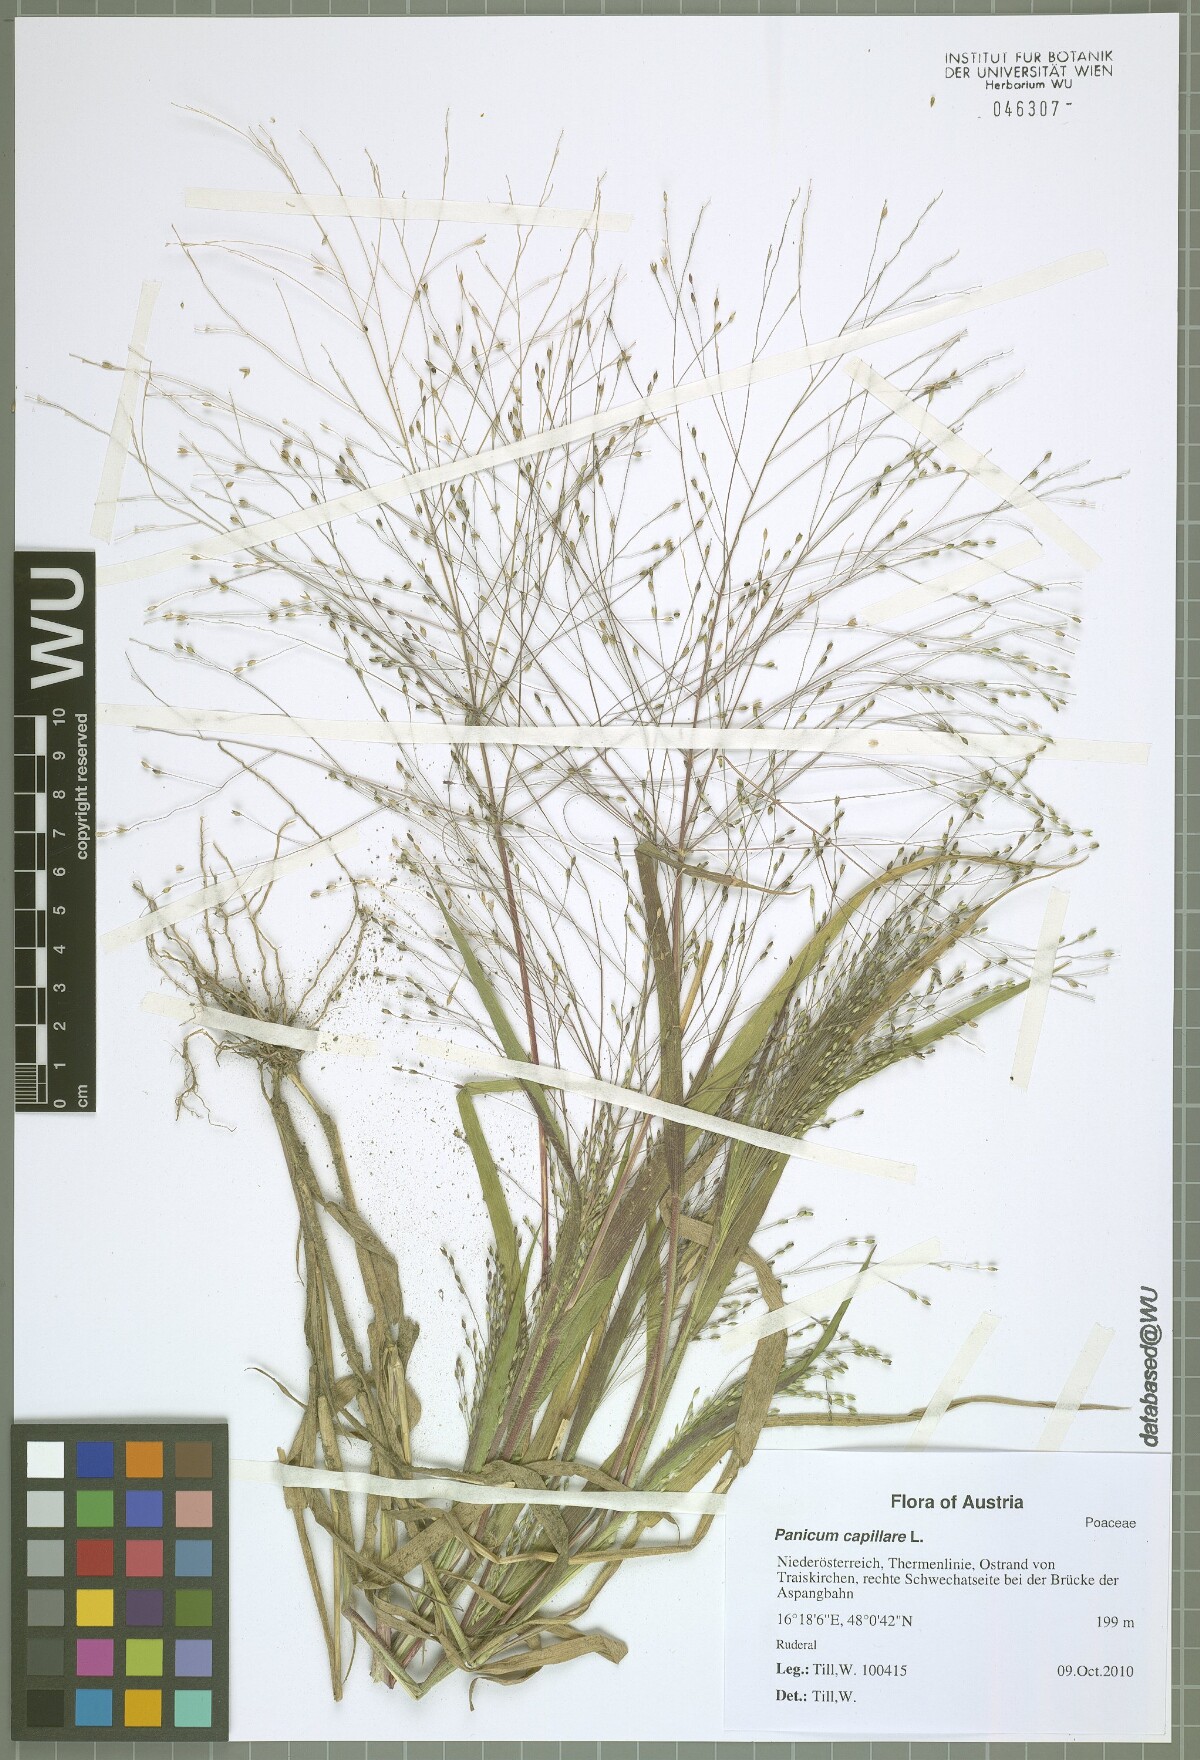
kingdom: Plantae
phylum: Tracheophyta
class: Liliopsida
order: Poales
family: Poaceae
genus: Panicum
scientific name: Panicum capillare
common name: Witch-grass
